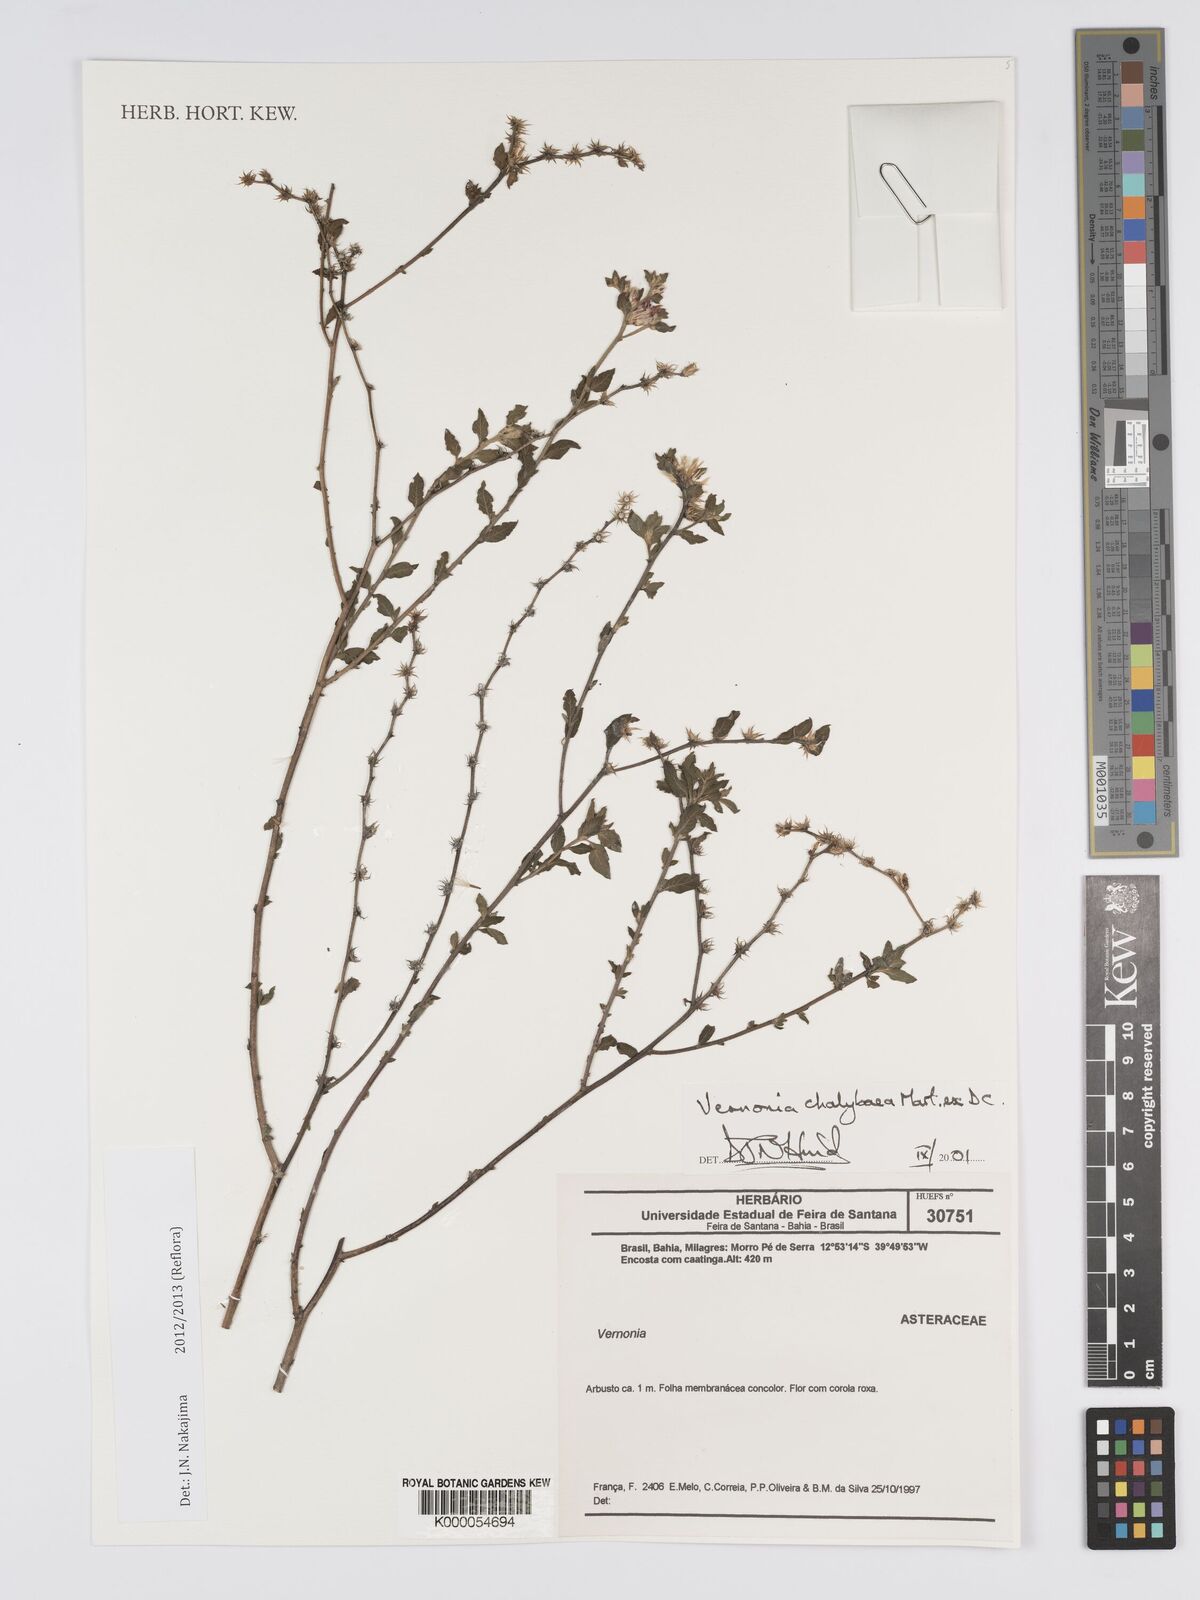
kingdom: Plantae
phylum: Tracheophyta
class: Magnoliopsida
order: Asterales
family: Asteraceae
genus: Lepidaploa
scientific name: Lepidaploa chalybaea
